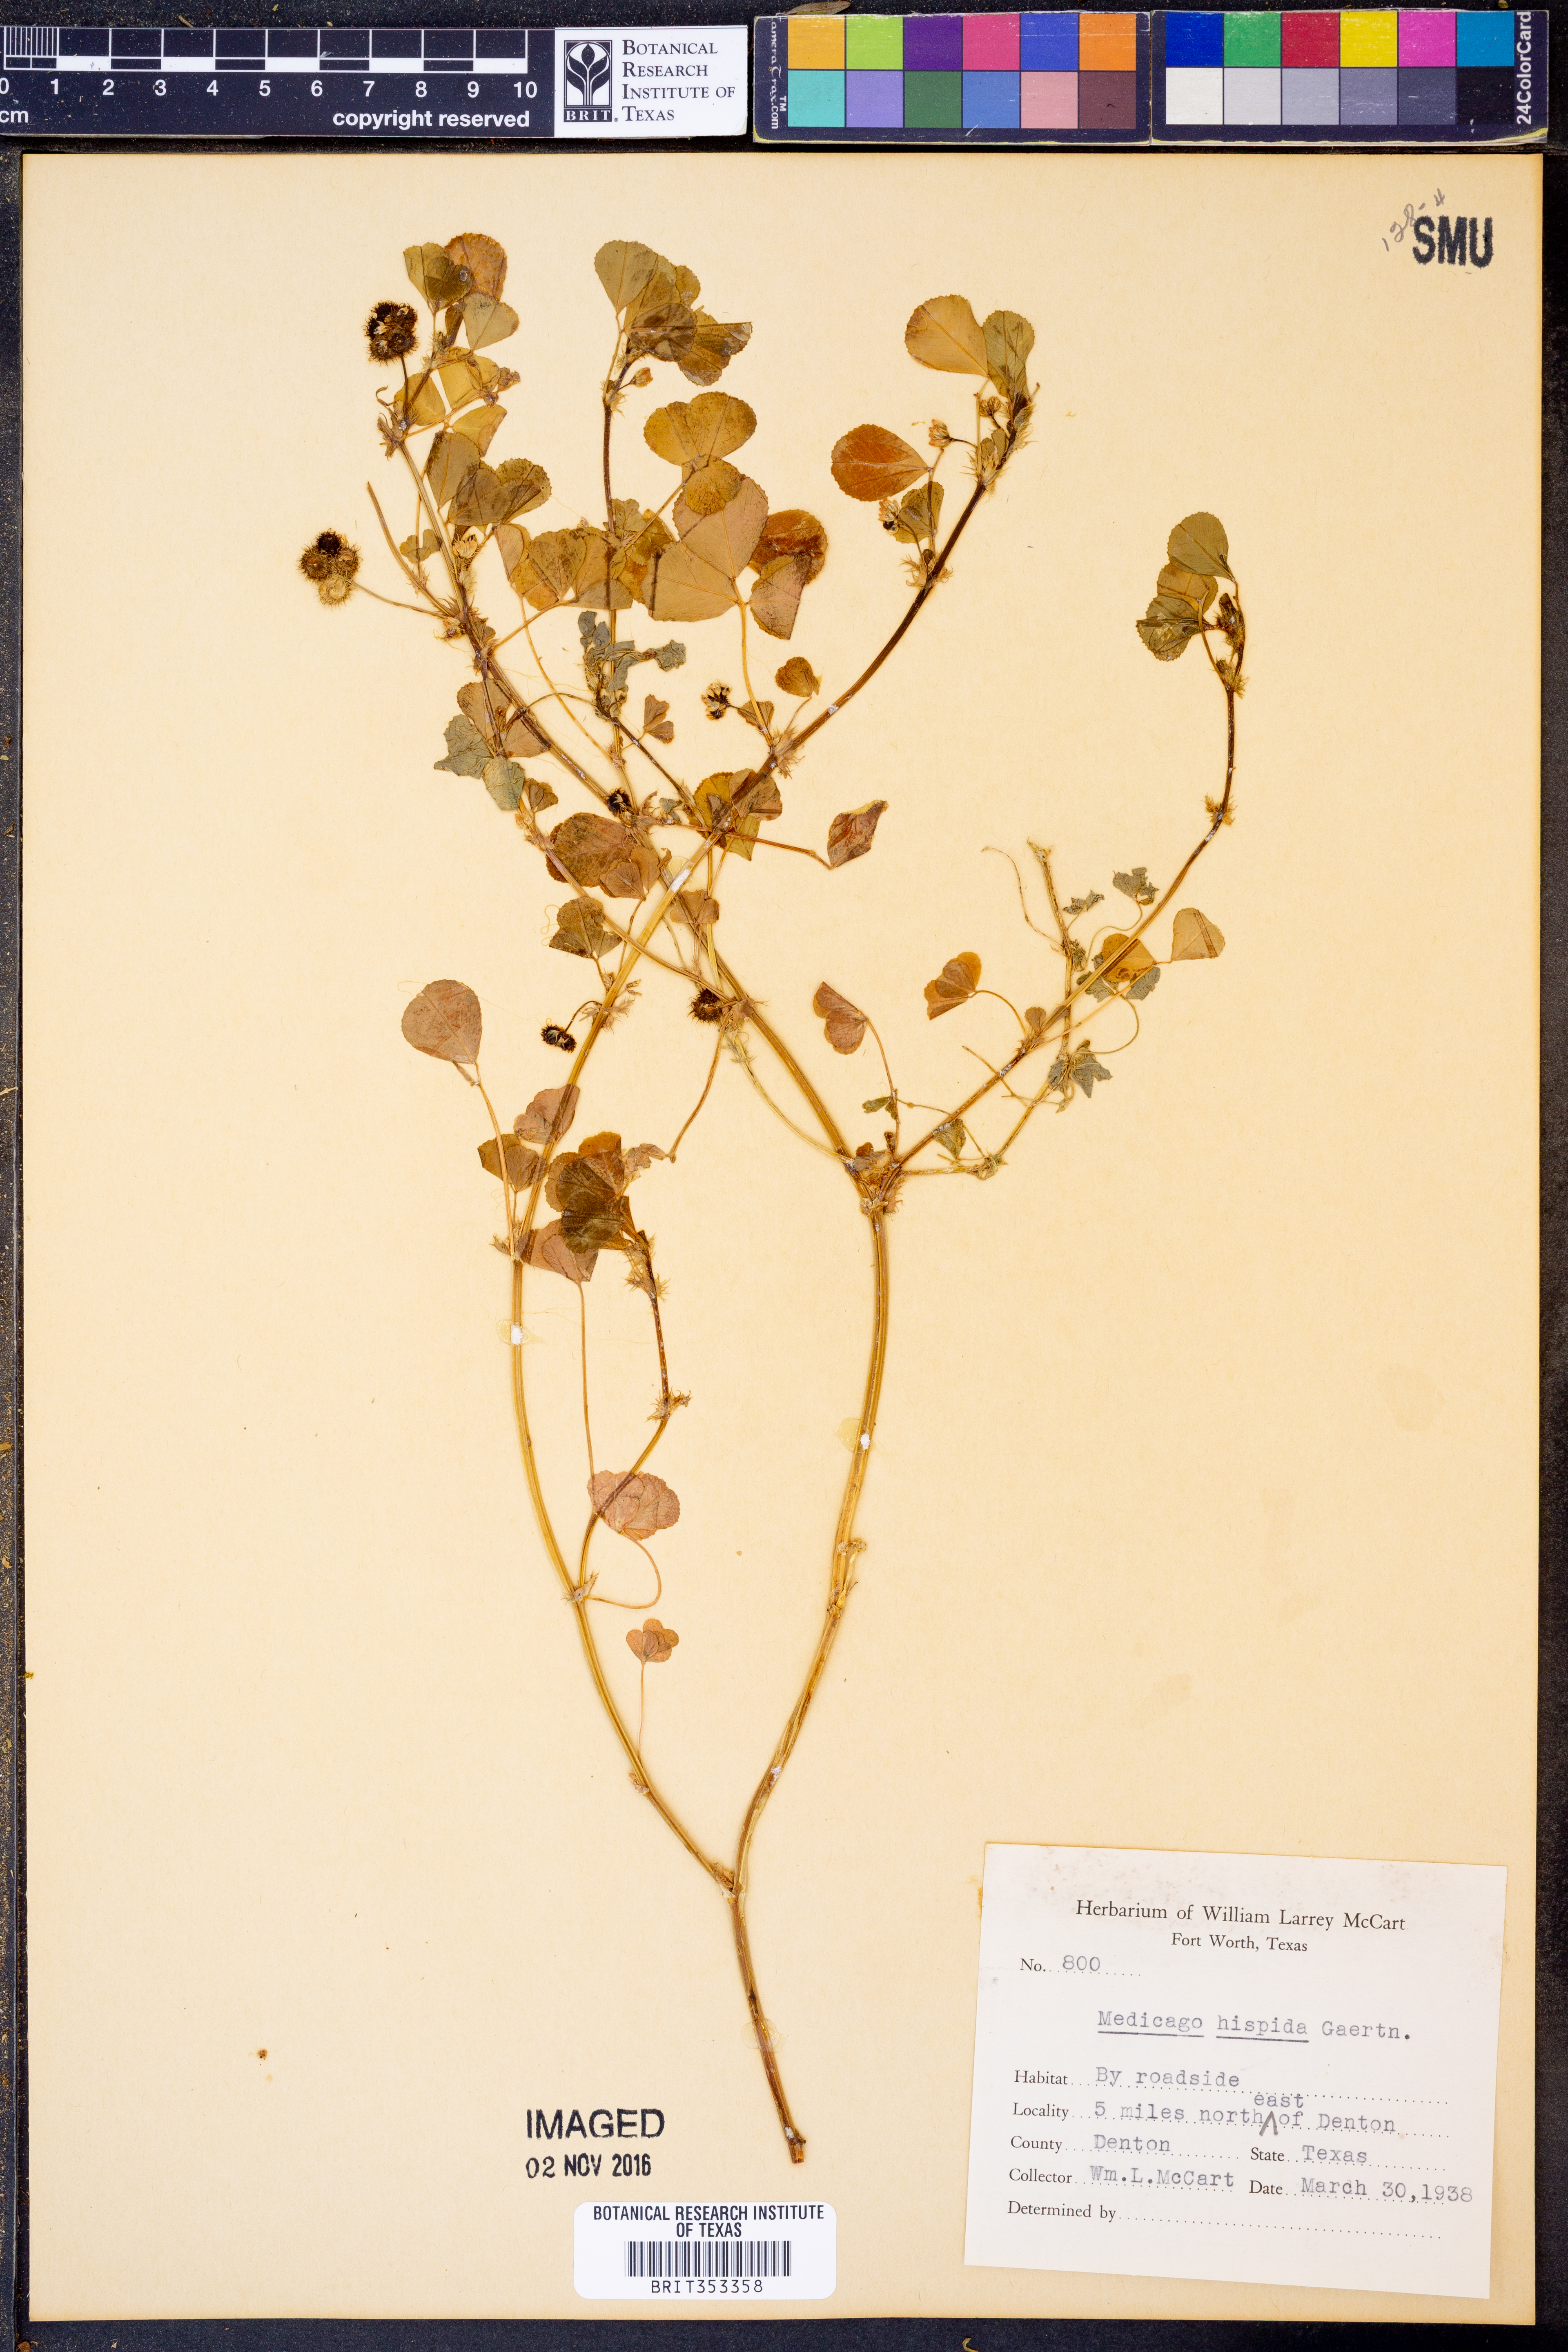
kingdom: Plantae
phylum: Tracheophyta
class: Magnoliopsida
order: Fabales
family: Fabaceae
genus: Medicago
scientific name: Medicago polymorpha
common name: Burclover
